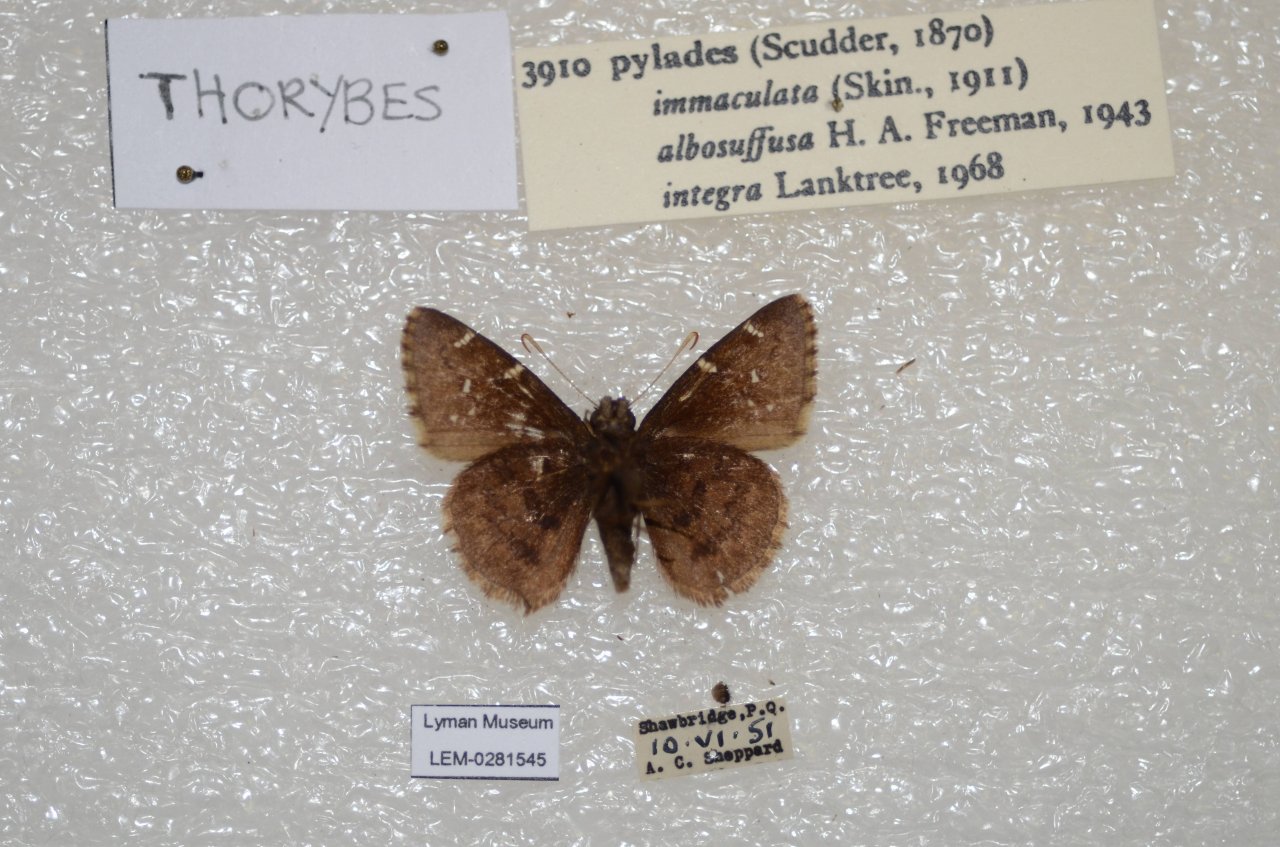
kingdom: Animalia
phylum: Arthropoda
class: Insecta
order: Lepidoptera
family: Hesperiidae
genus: Autochton
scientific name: Autochton
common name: Northern Cloudywing
